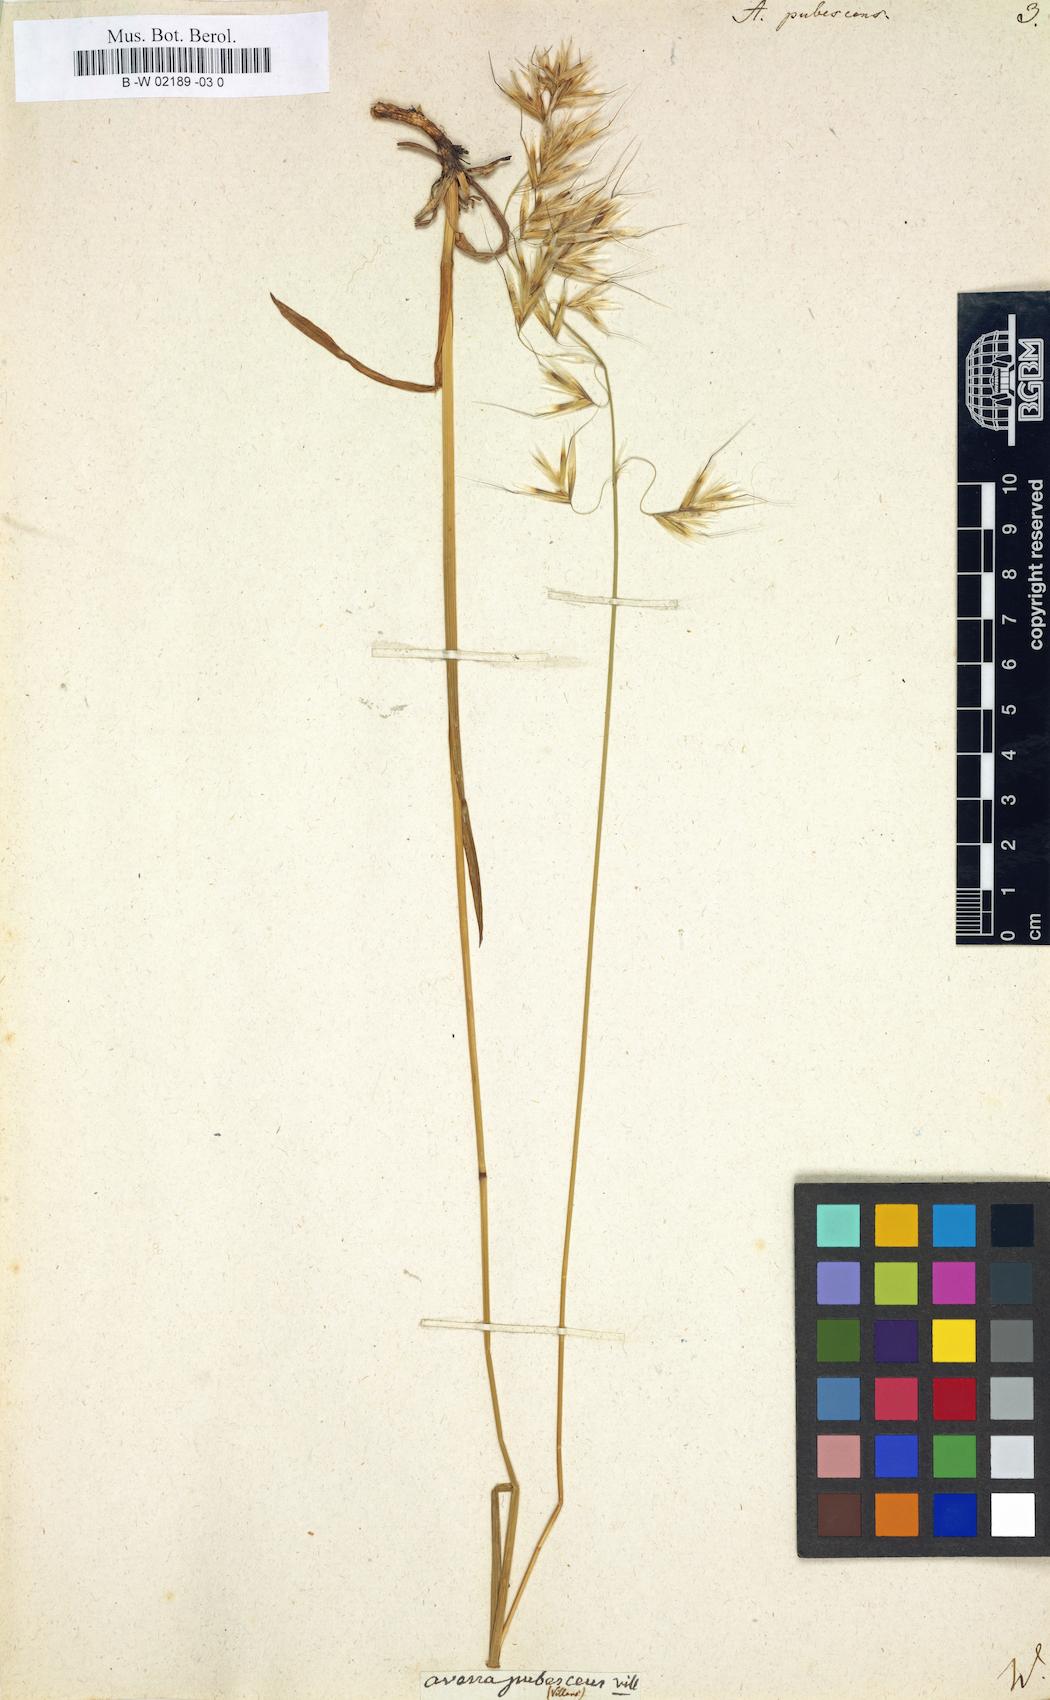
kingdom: Plantae
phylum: Tracheophyta
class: Liliopsida
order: Poales
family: Poaceae
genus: Avenula
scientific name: Avenula pubescens
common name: Downy alpine oatgrass
